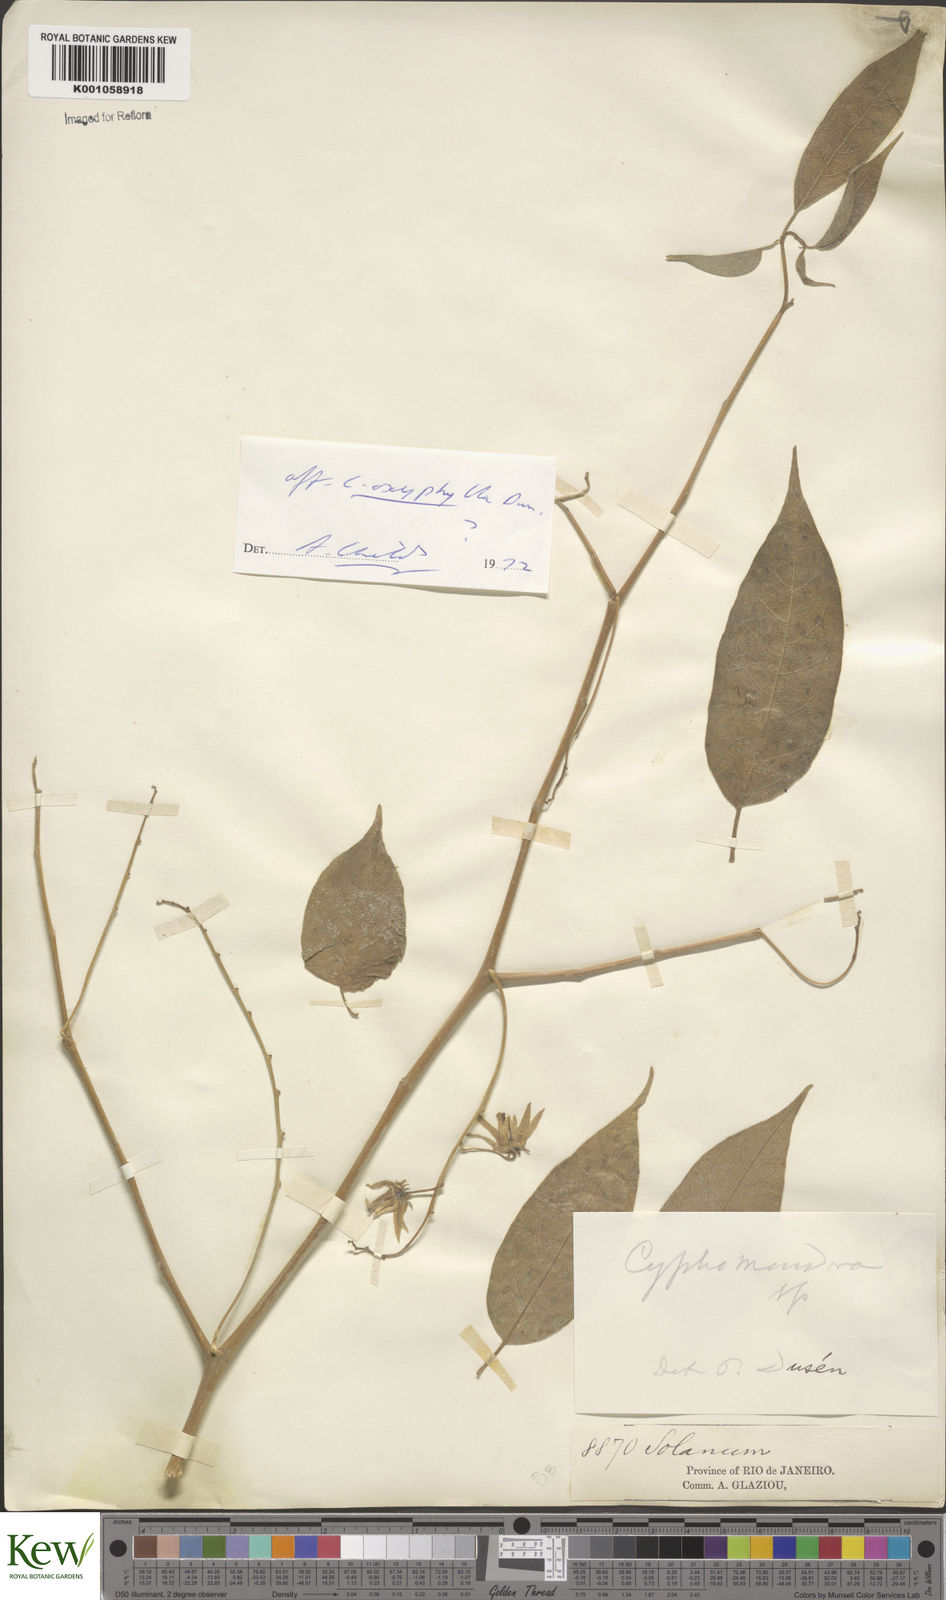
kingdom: Plantae
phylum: Tracheophyta
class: Magnoliopsida
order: Solanales
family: Solanaceae
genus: Solanum
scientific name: Solanum melissarum
